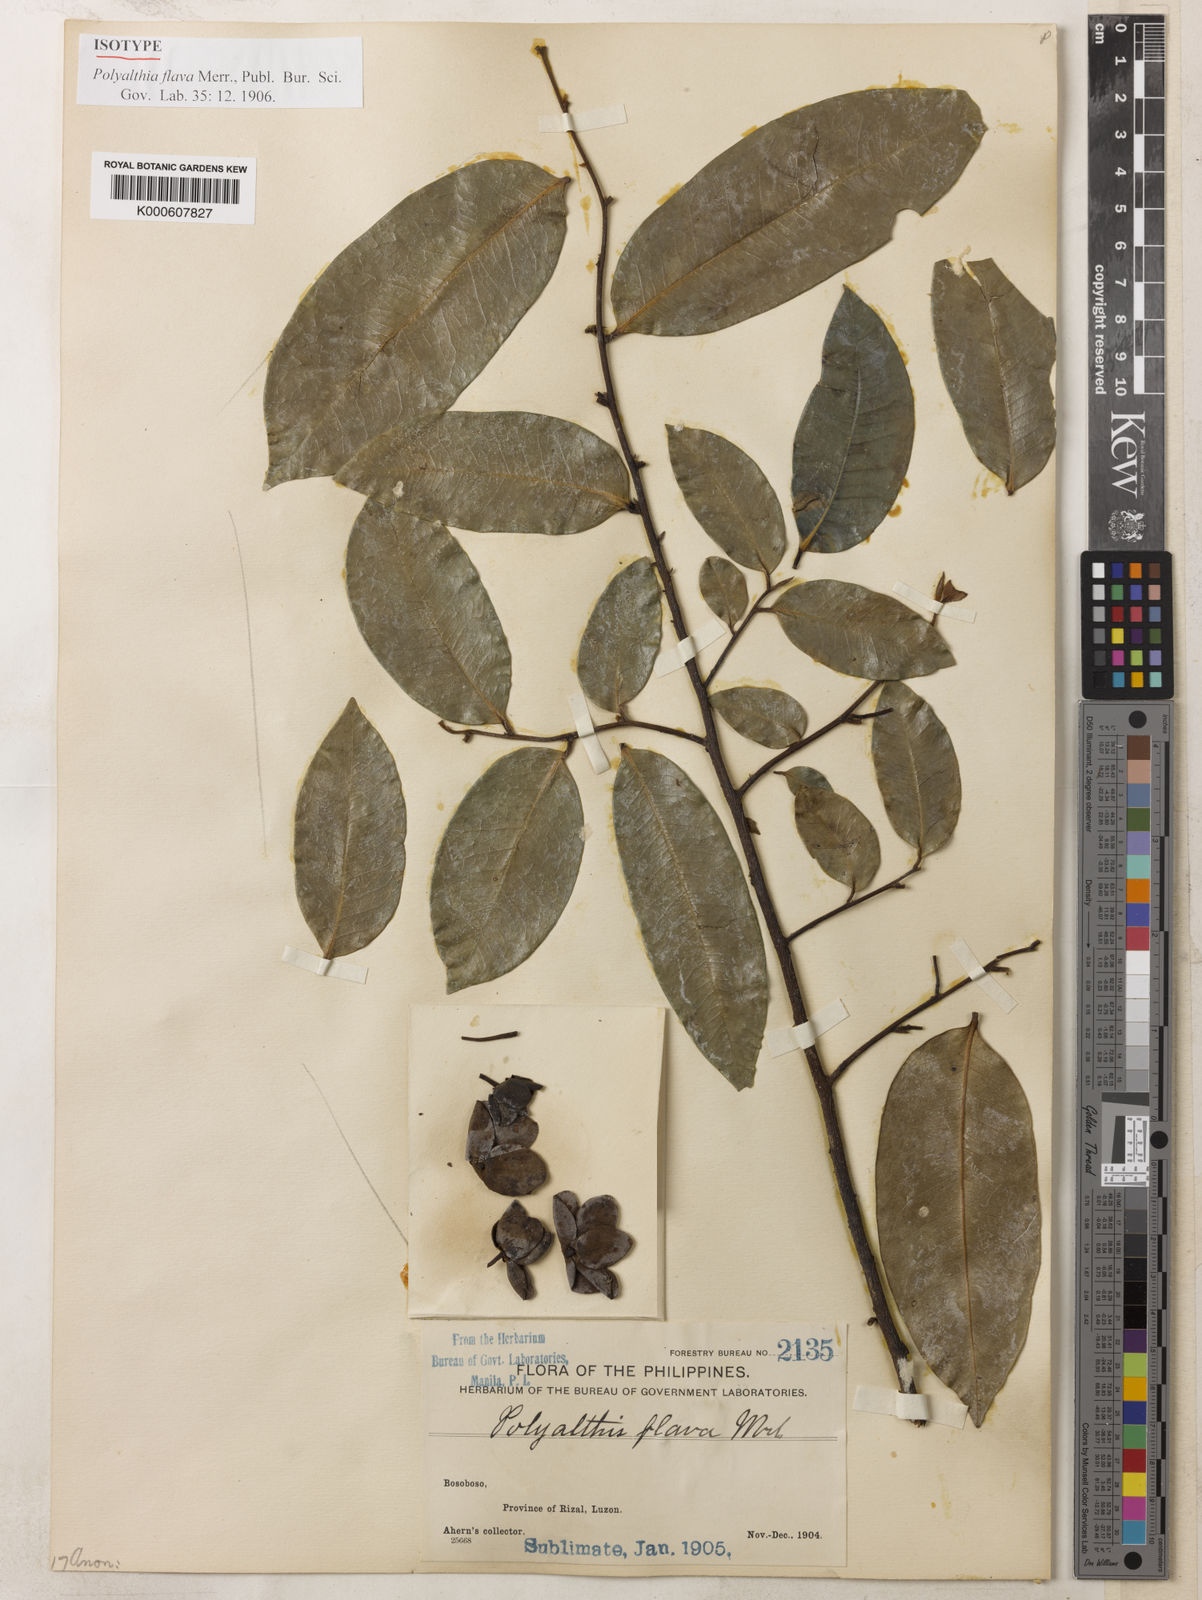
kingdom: Plantae
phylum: Tracheophyta
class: Magnoliopsida
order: Magnoliales
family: Annonaceae
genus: Polyalthia
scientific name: Polyalthia flava
